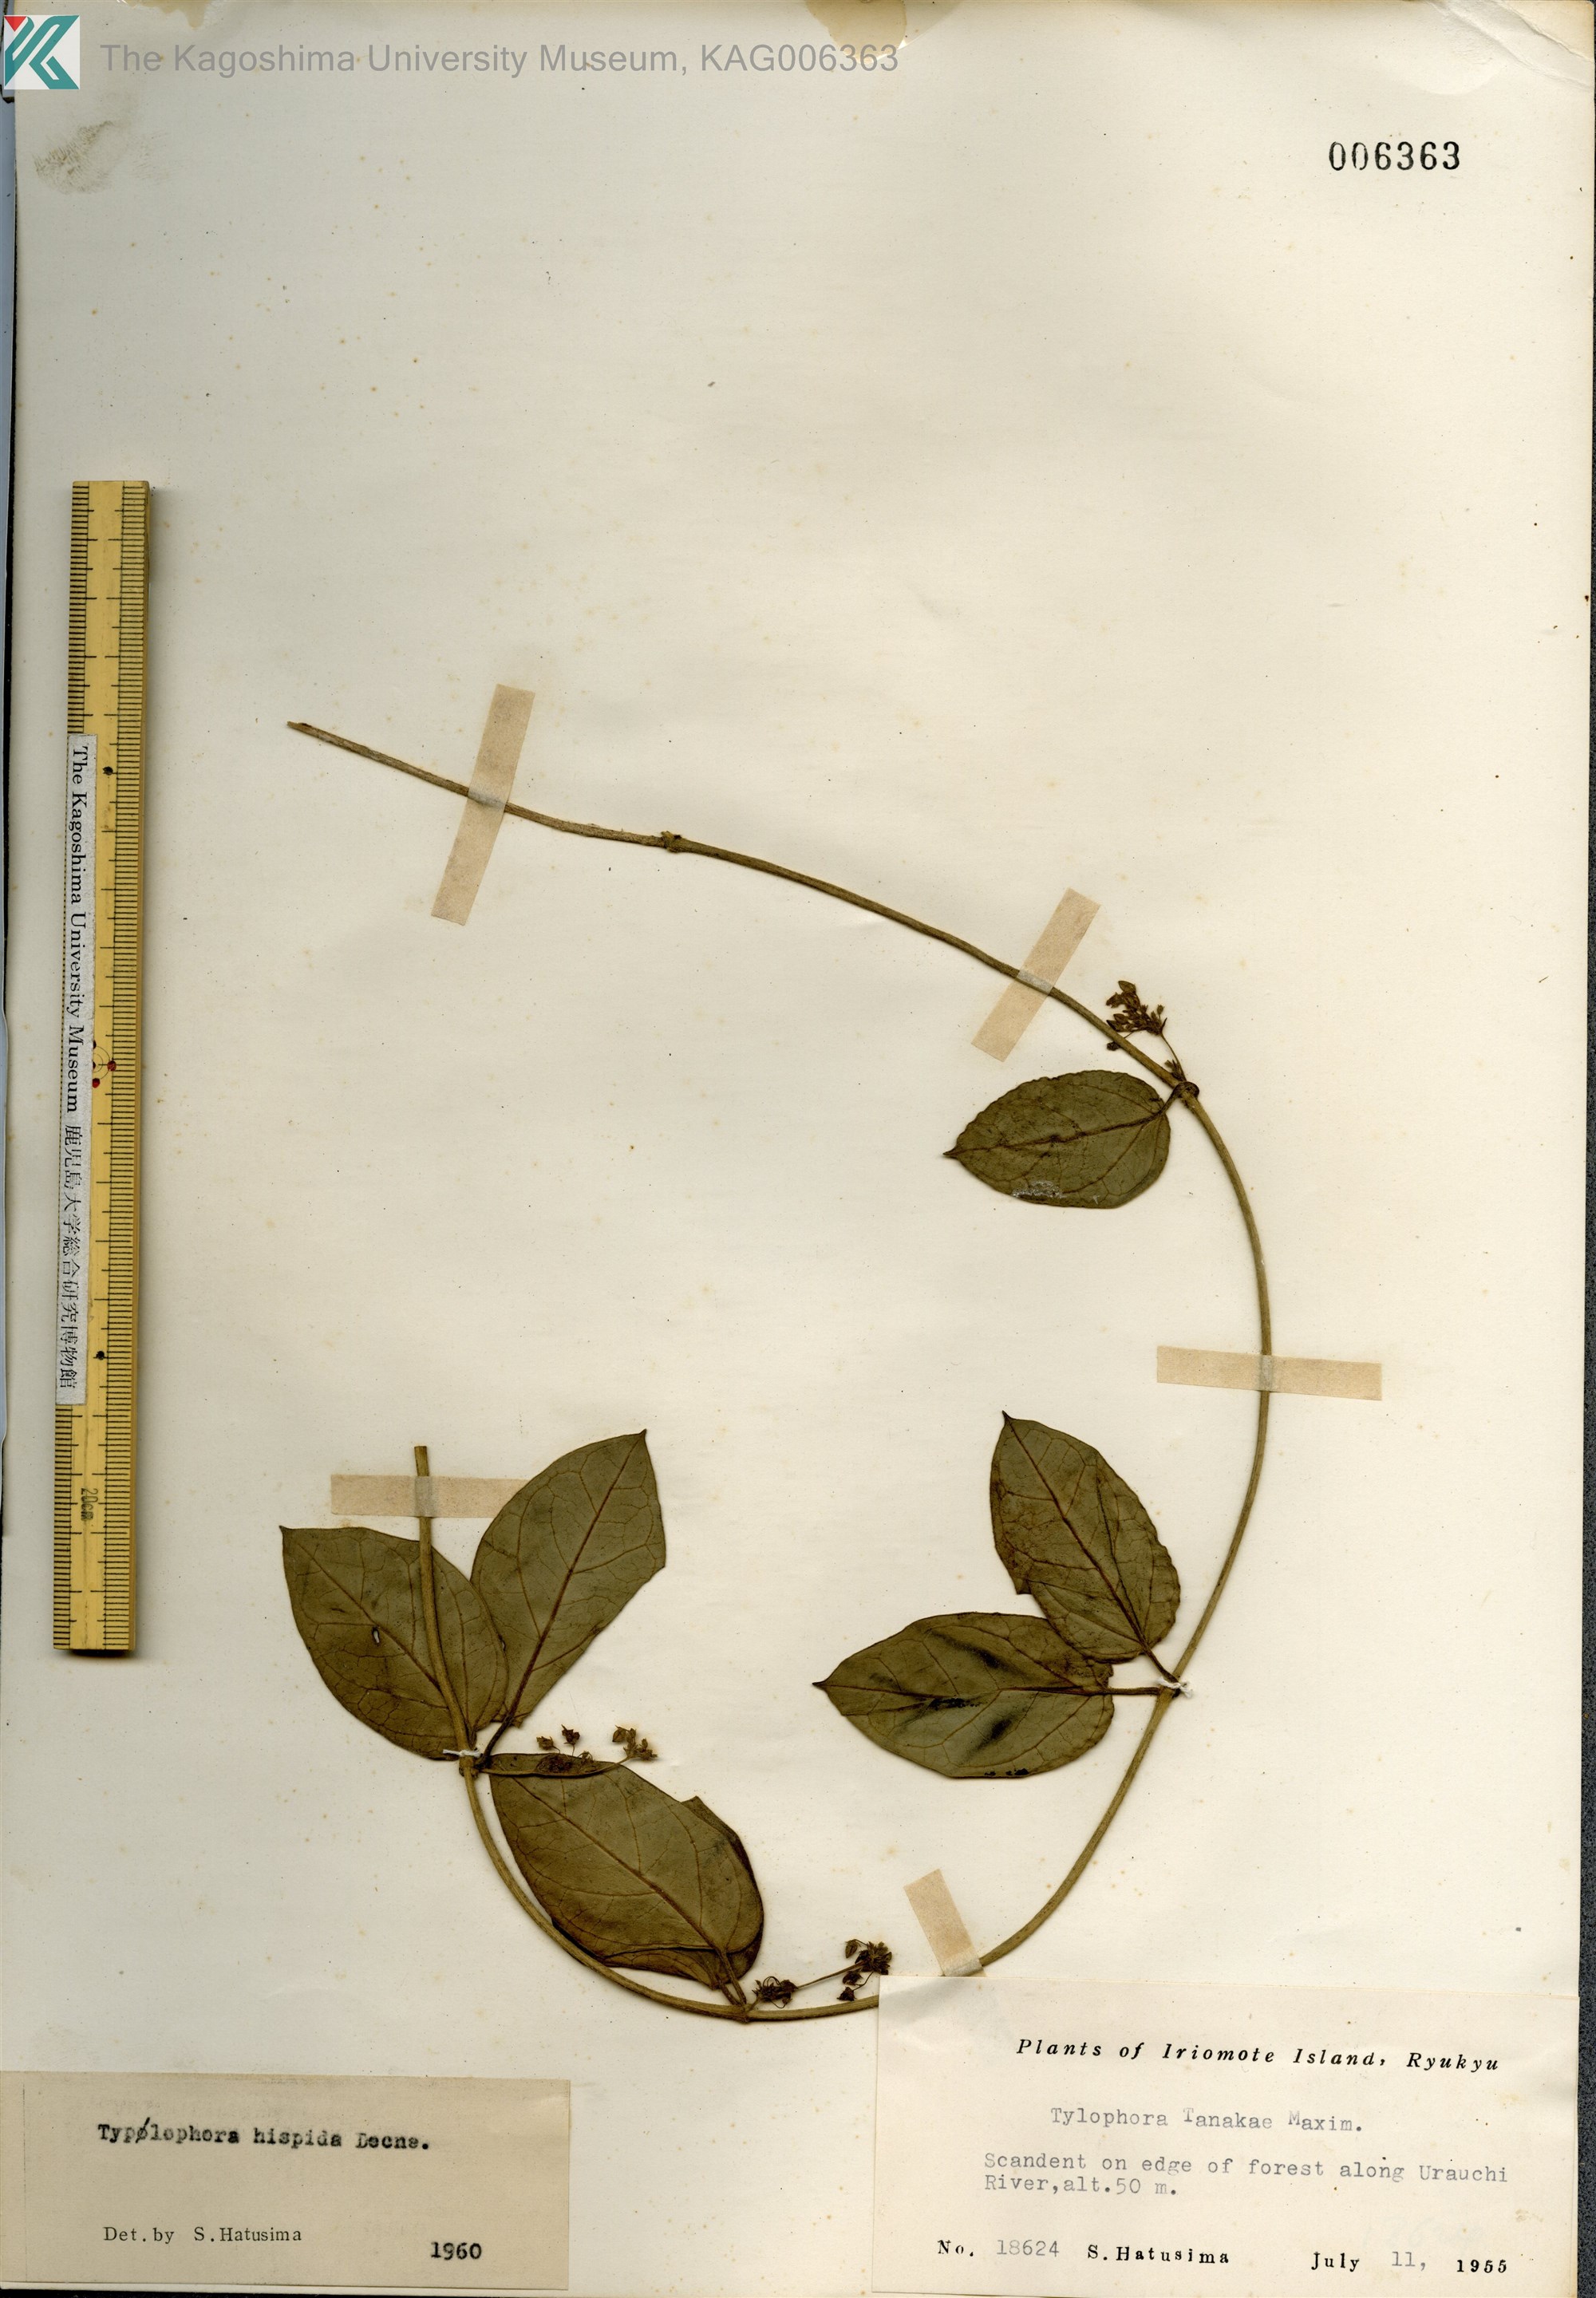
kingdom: Plantae
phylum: Tracheophyta
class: Magnoliopsida
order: Gentianales
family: Apocynaceae
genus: Vincetoxicum
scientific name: Vincetoxicum hirsutum
